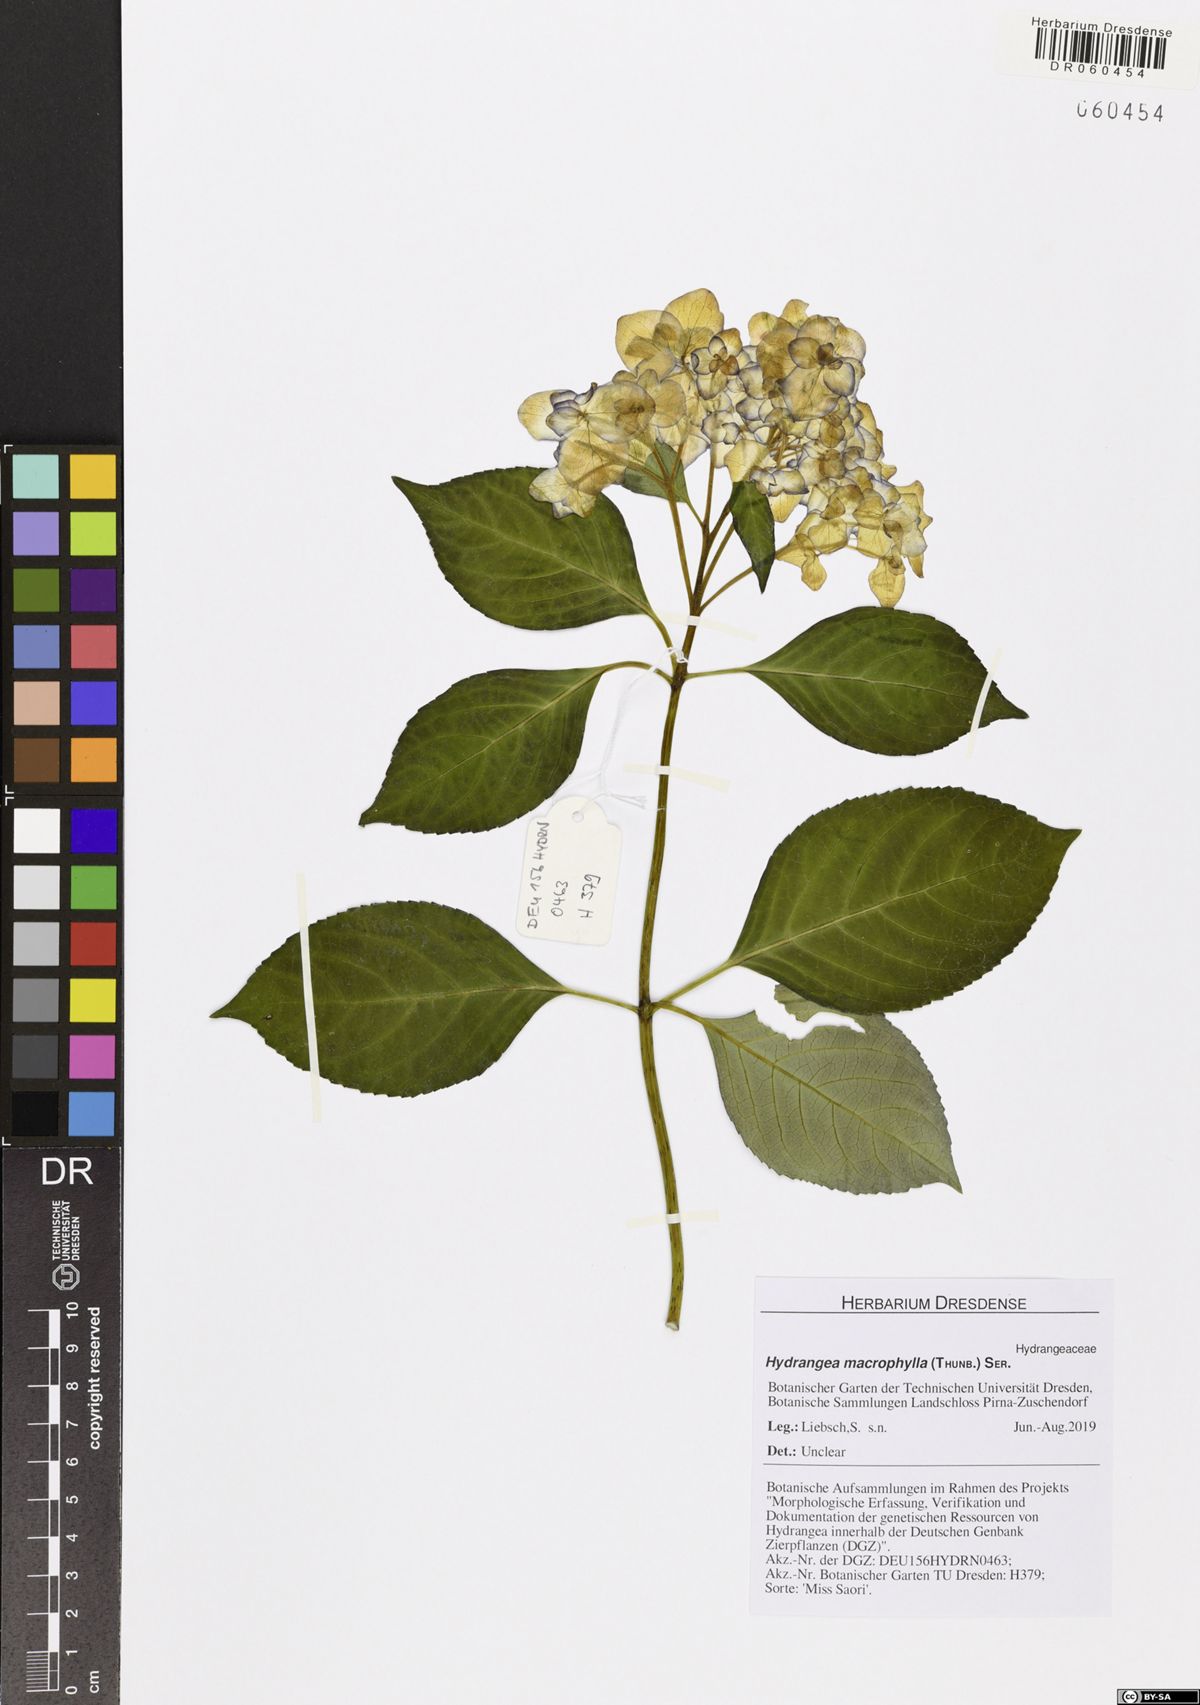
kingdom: Plantae
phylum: Tracheophyta
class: Magnoliopsida
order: Cornales
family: Hydrangeaceae
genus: Hydrangea
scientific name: Hydrangea macrophylla
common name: Hydrangea
